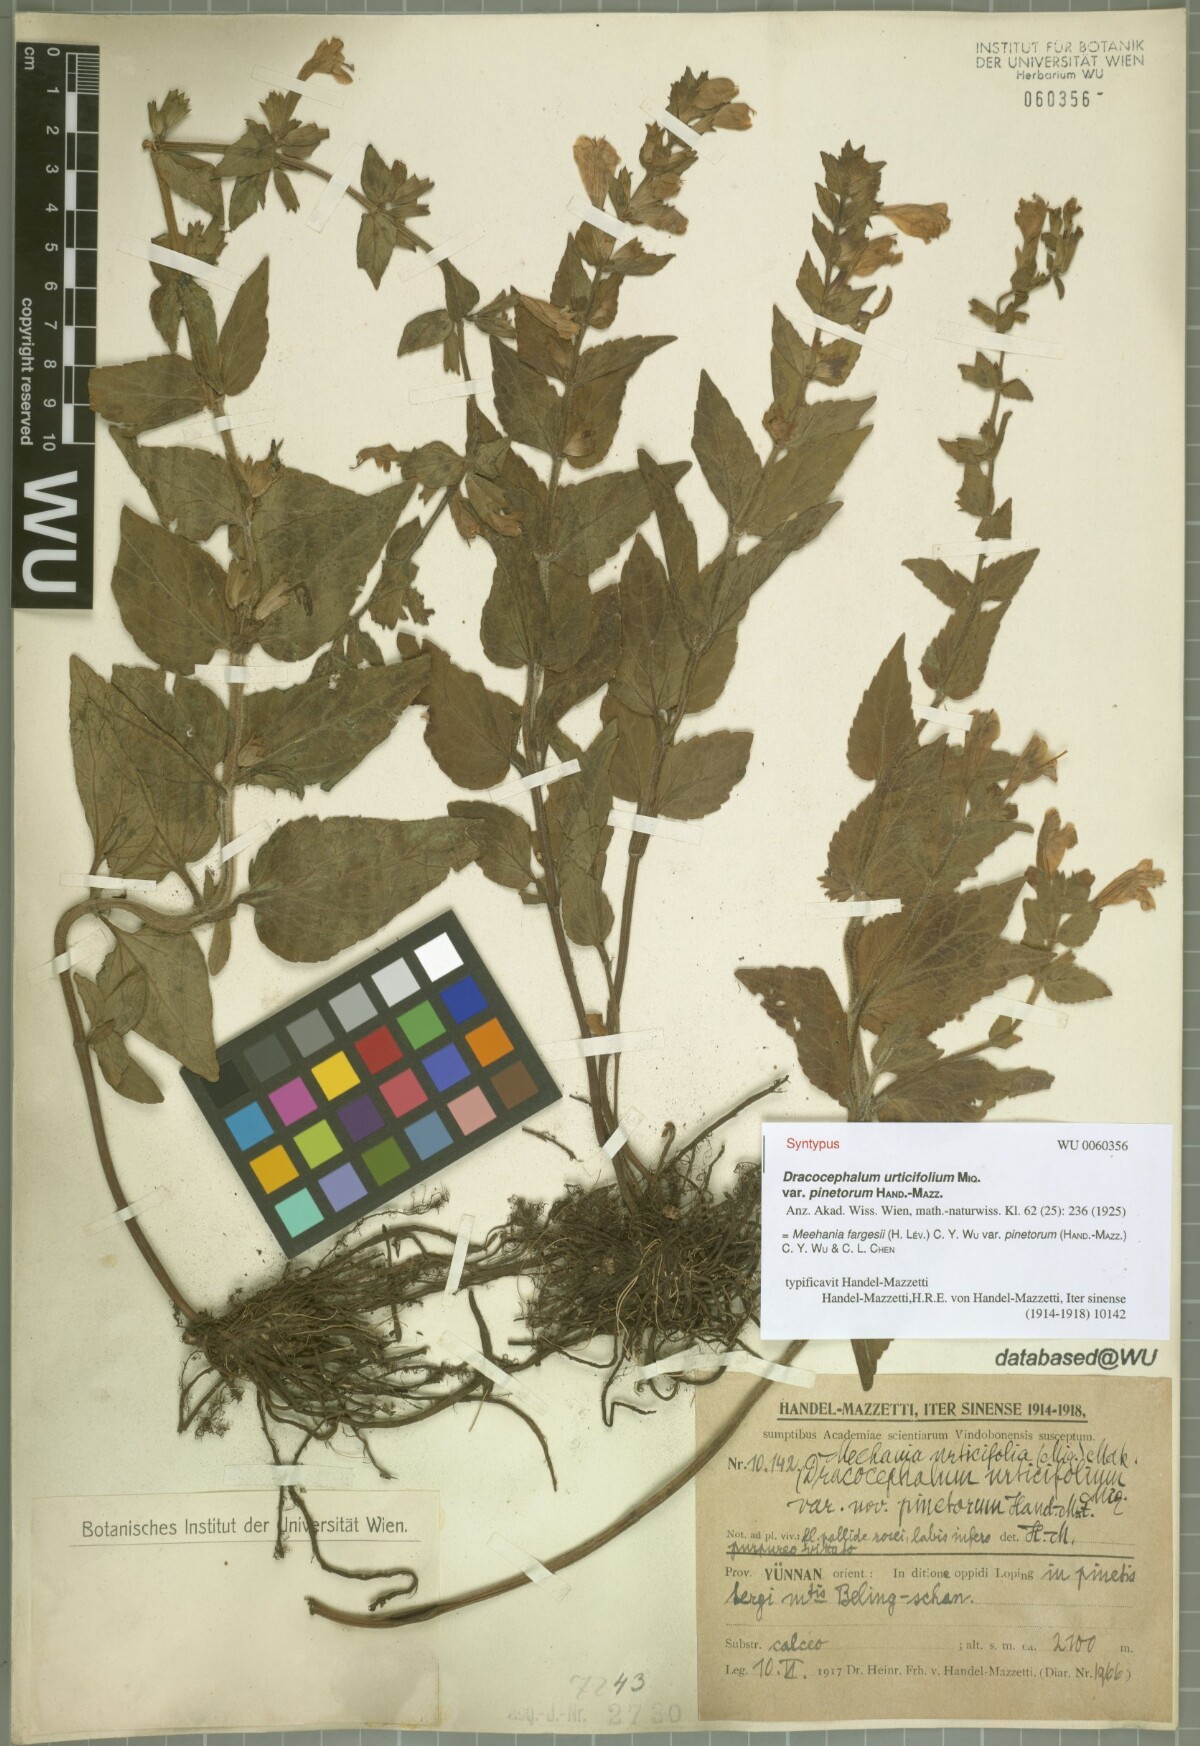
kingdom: Plantae
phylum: Tracheophyta
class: Magnoliopsida
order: Lamiales
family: Lamiaceae
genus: Meehania
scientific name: Meehania fargesii
